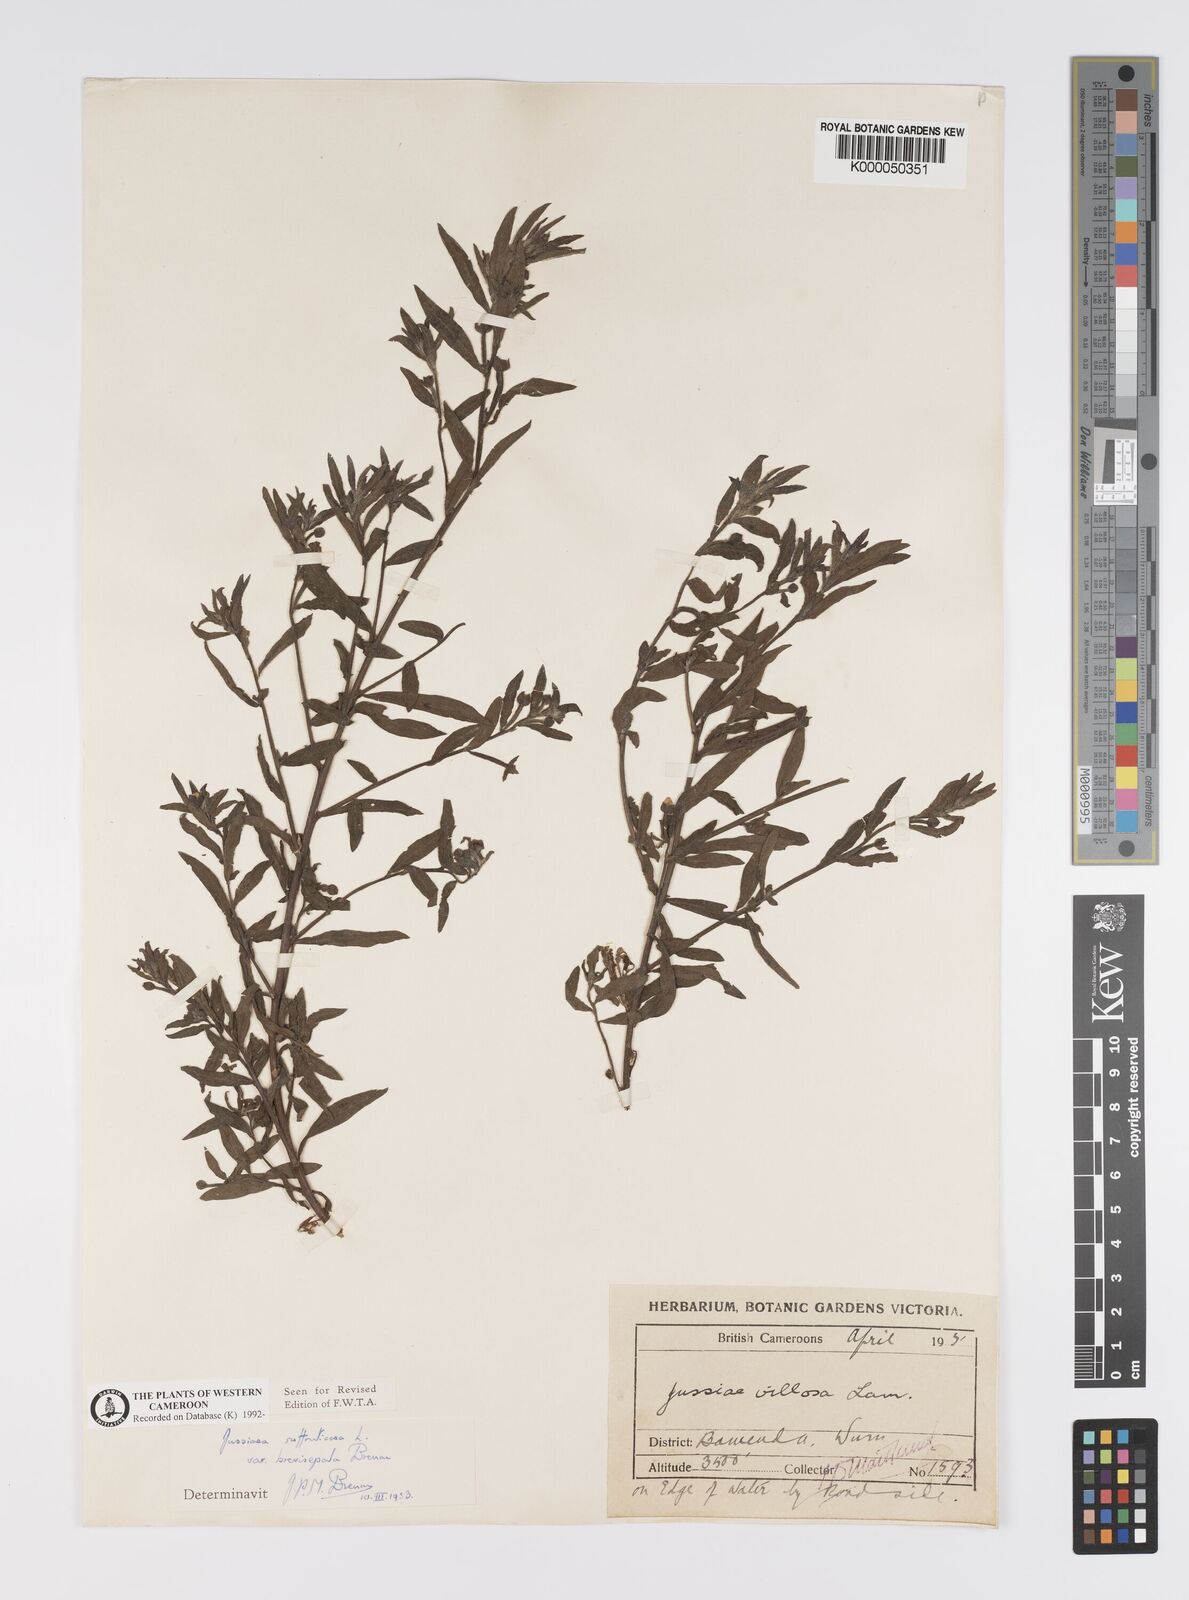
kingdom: Plantae
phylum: Tracheophyta
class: Magnoliopsida
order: Myrtales
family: Onagraceae
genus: Ludwigia
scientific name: Ludwigia octovalvis
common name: Water-primrose
